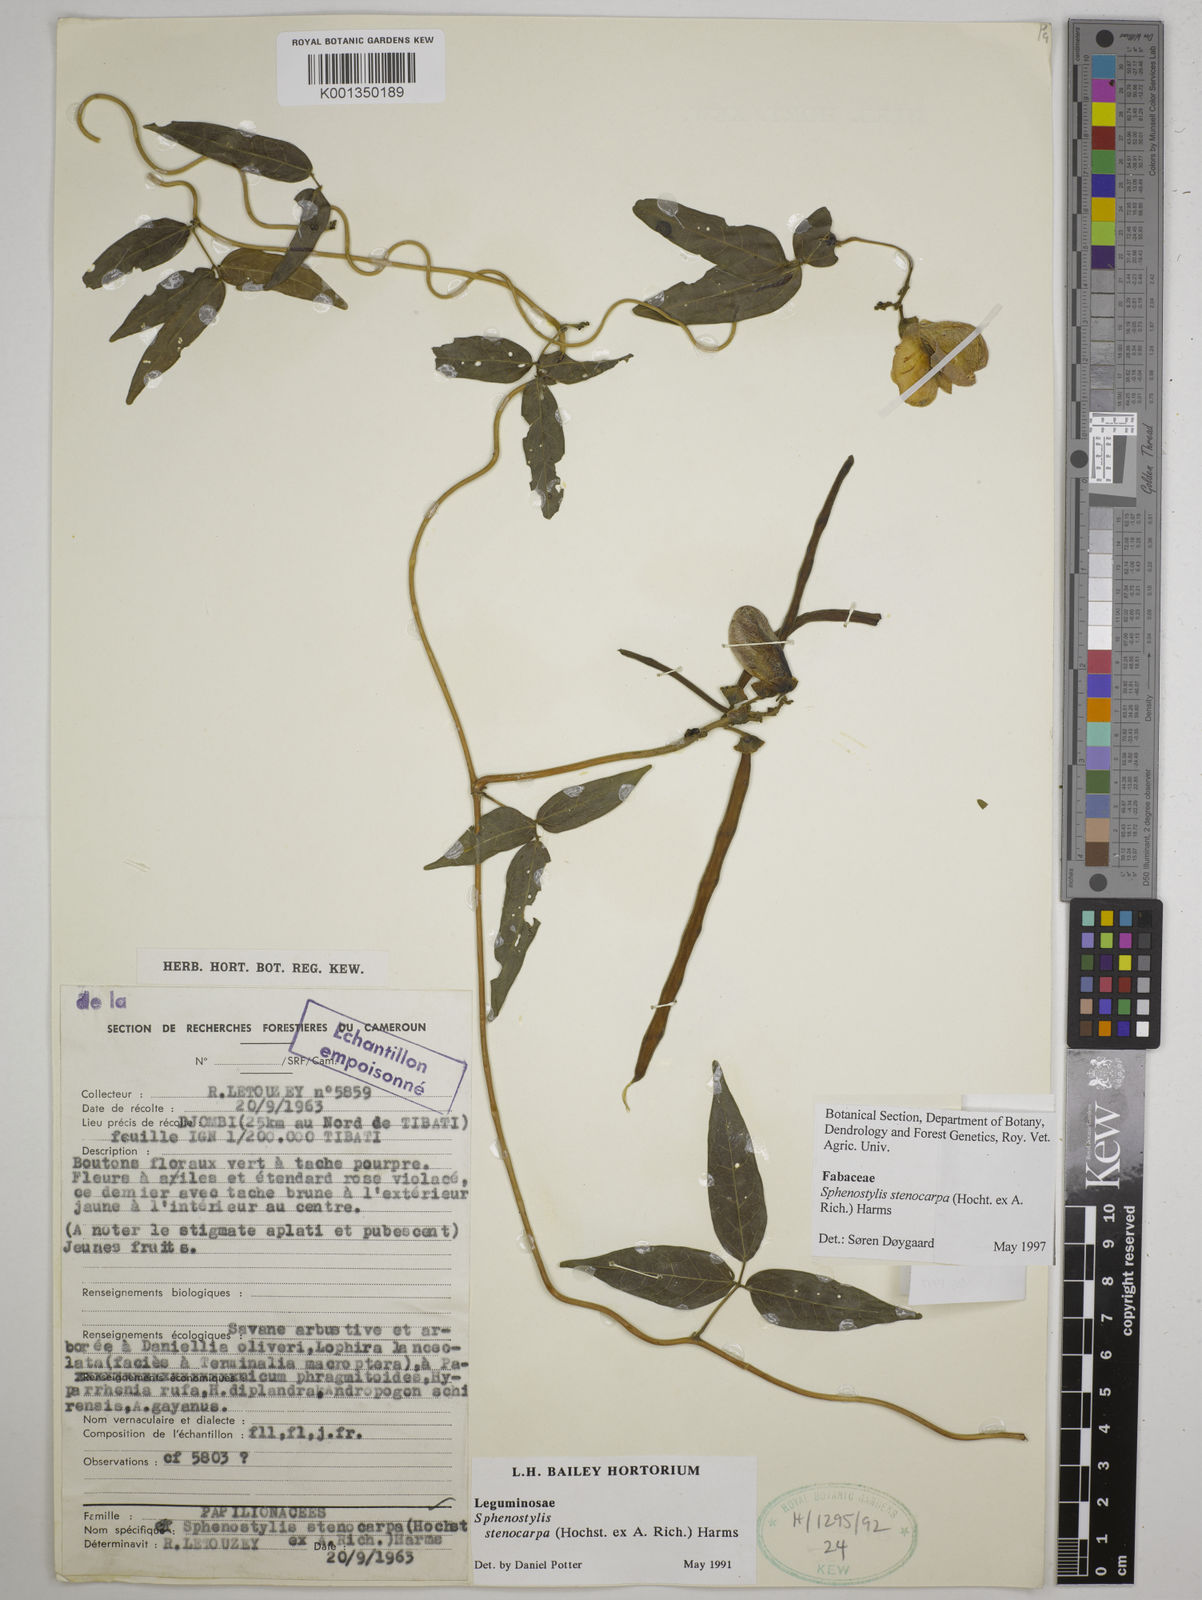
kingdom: Plantae
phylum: Tracheophyta
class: Magnoliopsida
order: Fabales
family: Fabaceae
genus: Sphenostylis
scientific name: Sphenostylis stenocarpa
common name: Yam-pea
